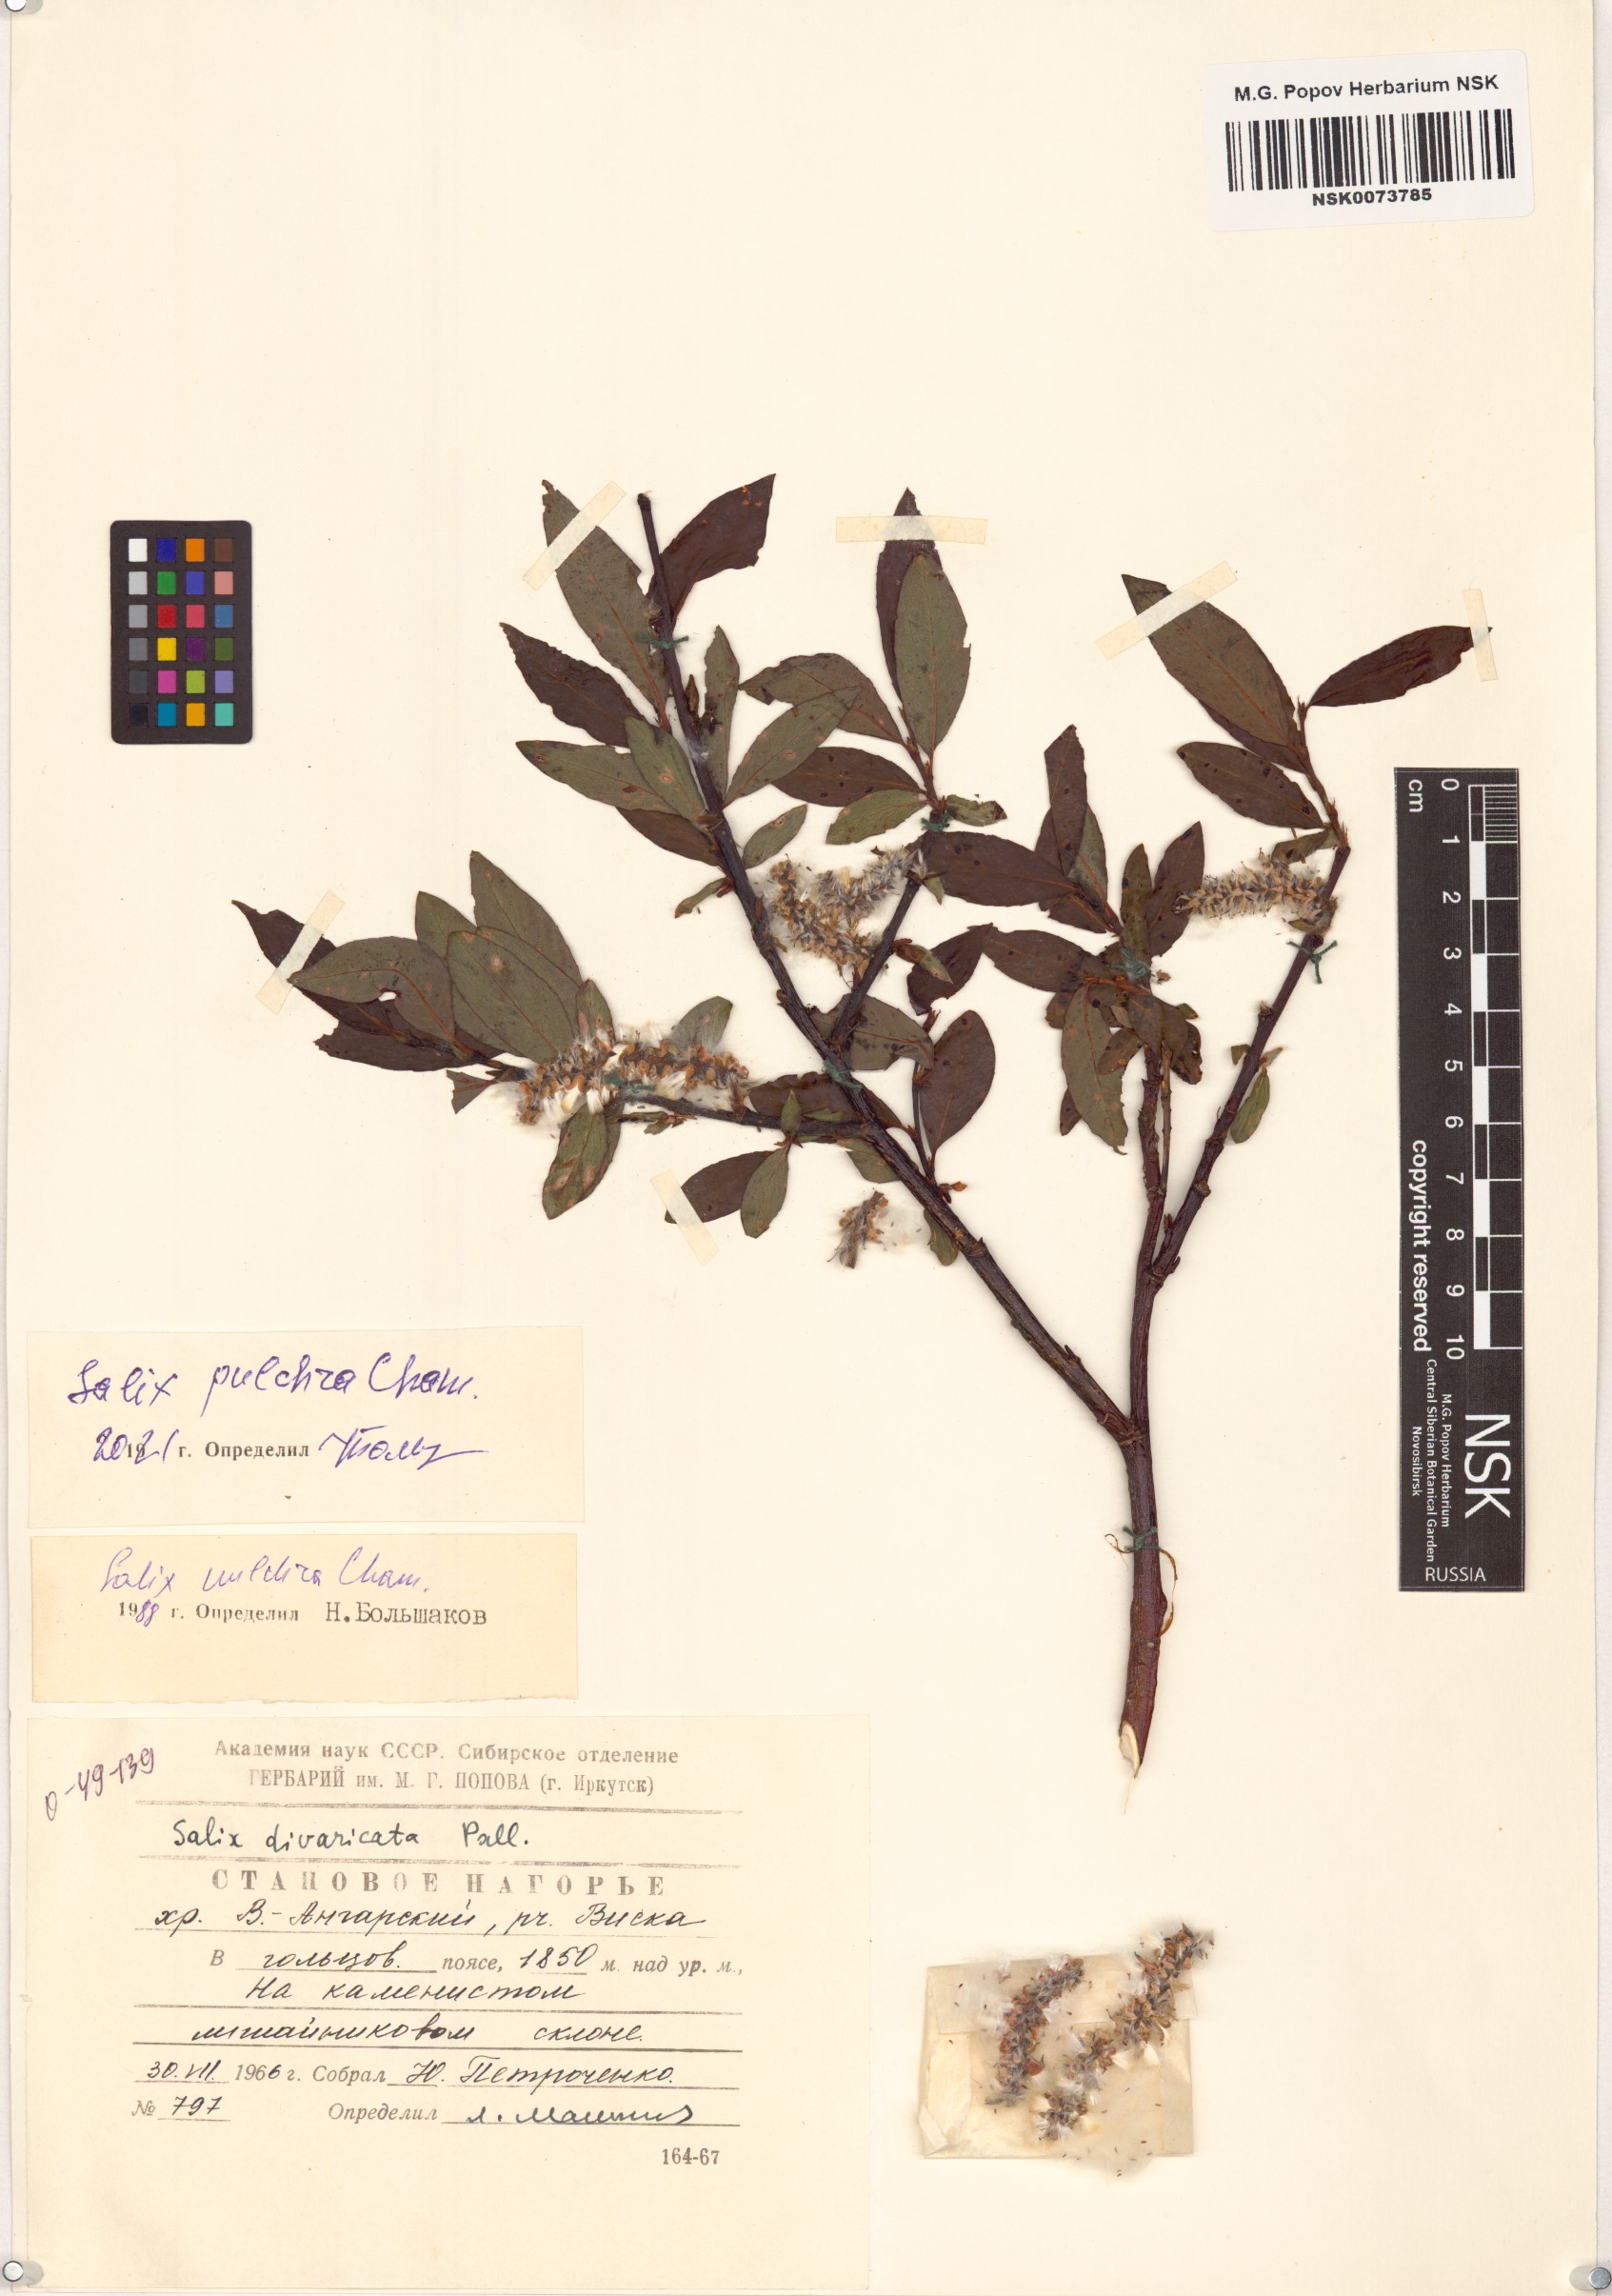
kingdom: Plantae
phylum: Tracheophyta
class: Magnoliopsida
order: Malpighiales
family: Salicaceae
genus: Salix
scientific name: Salix pulchra
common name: Diamond-leaved willow
